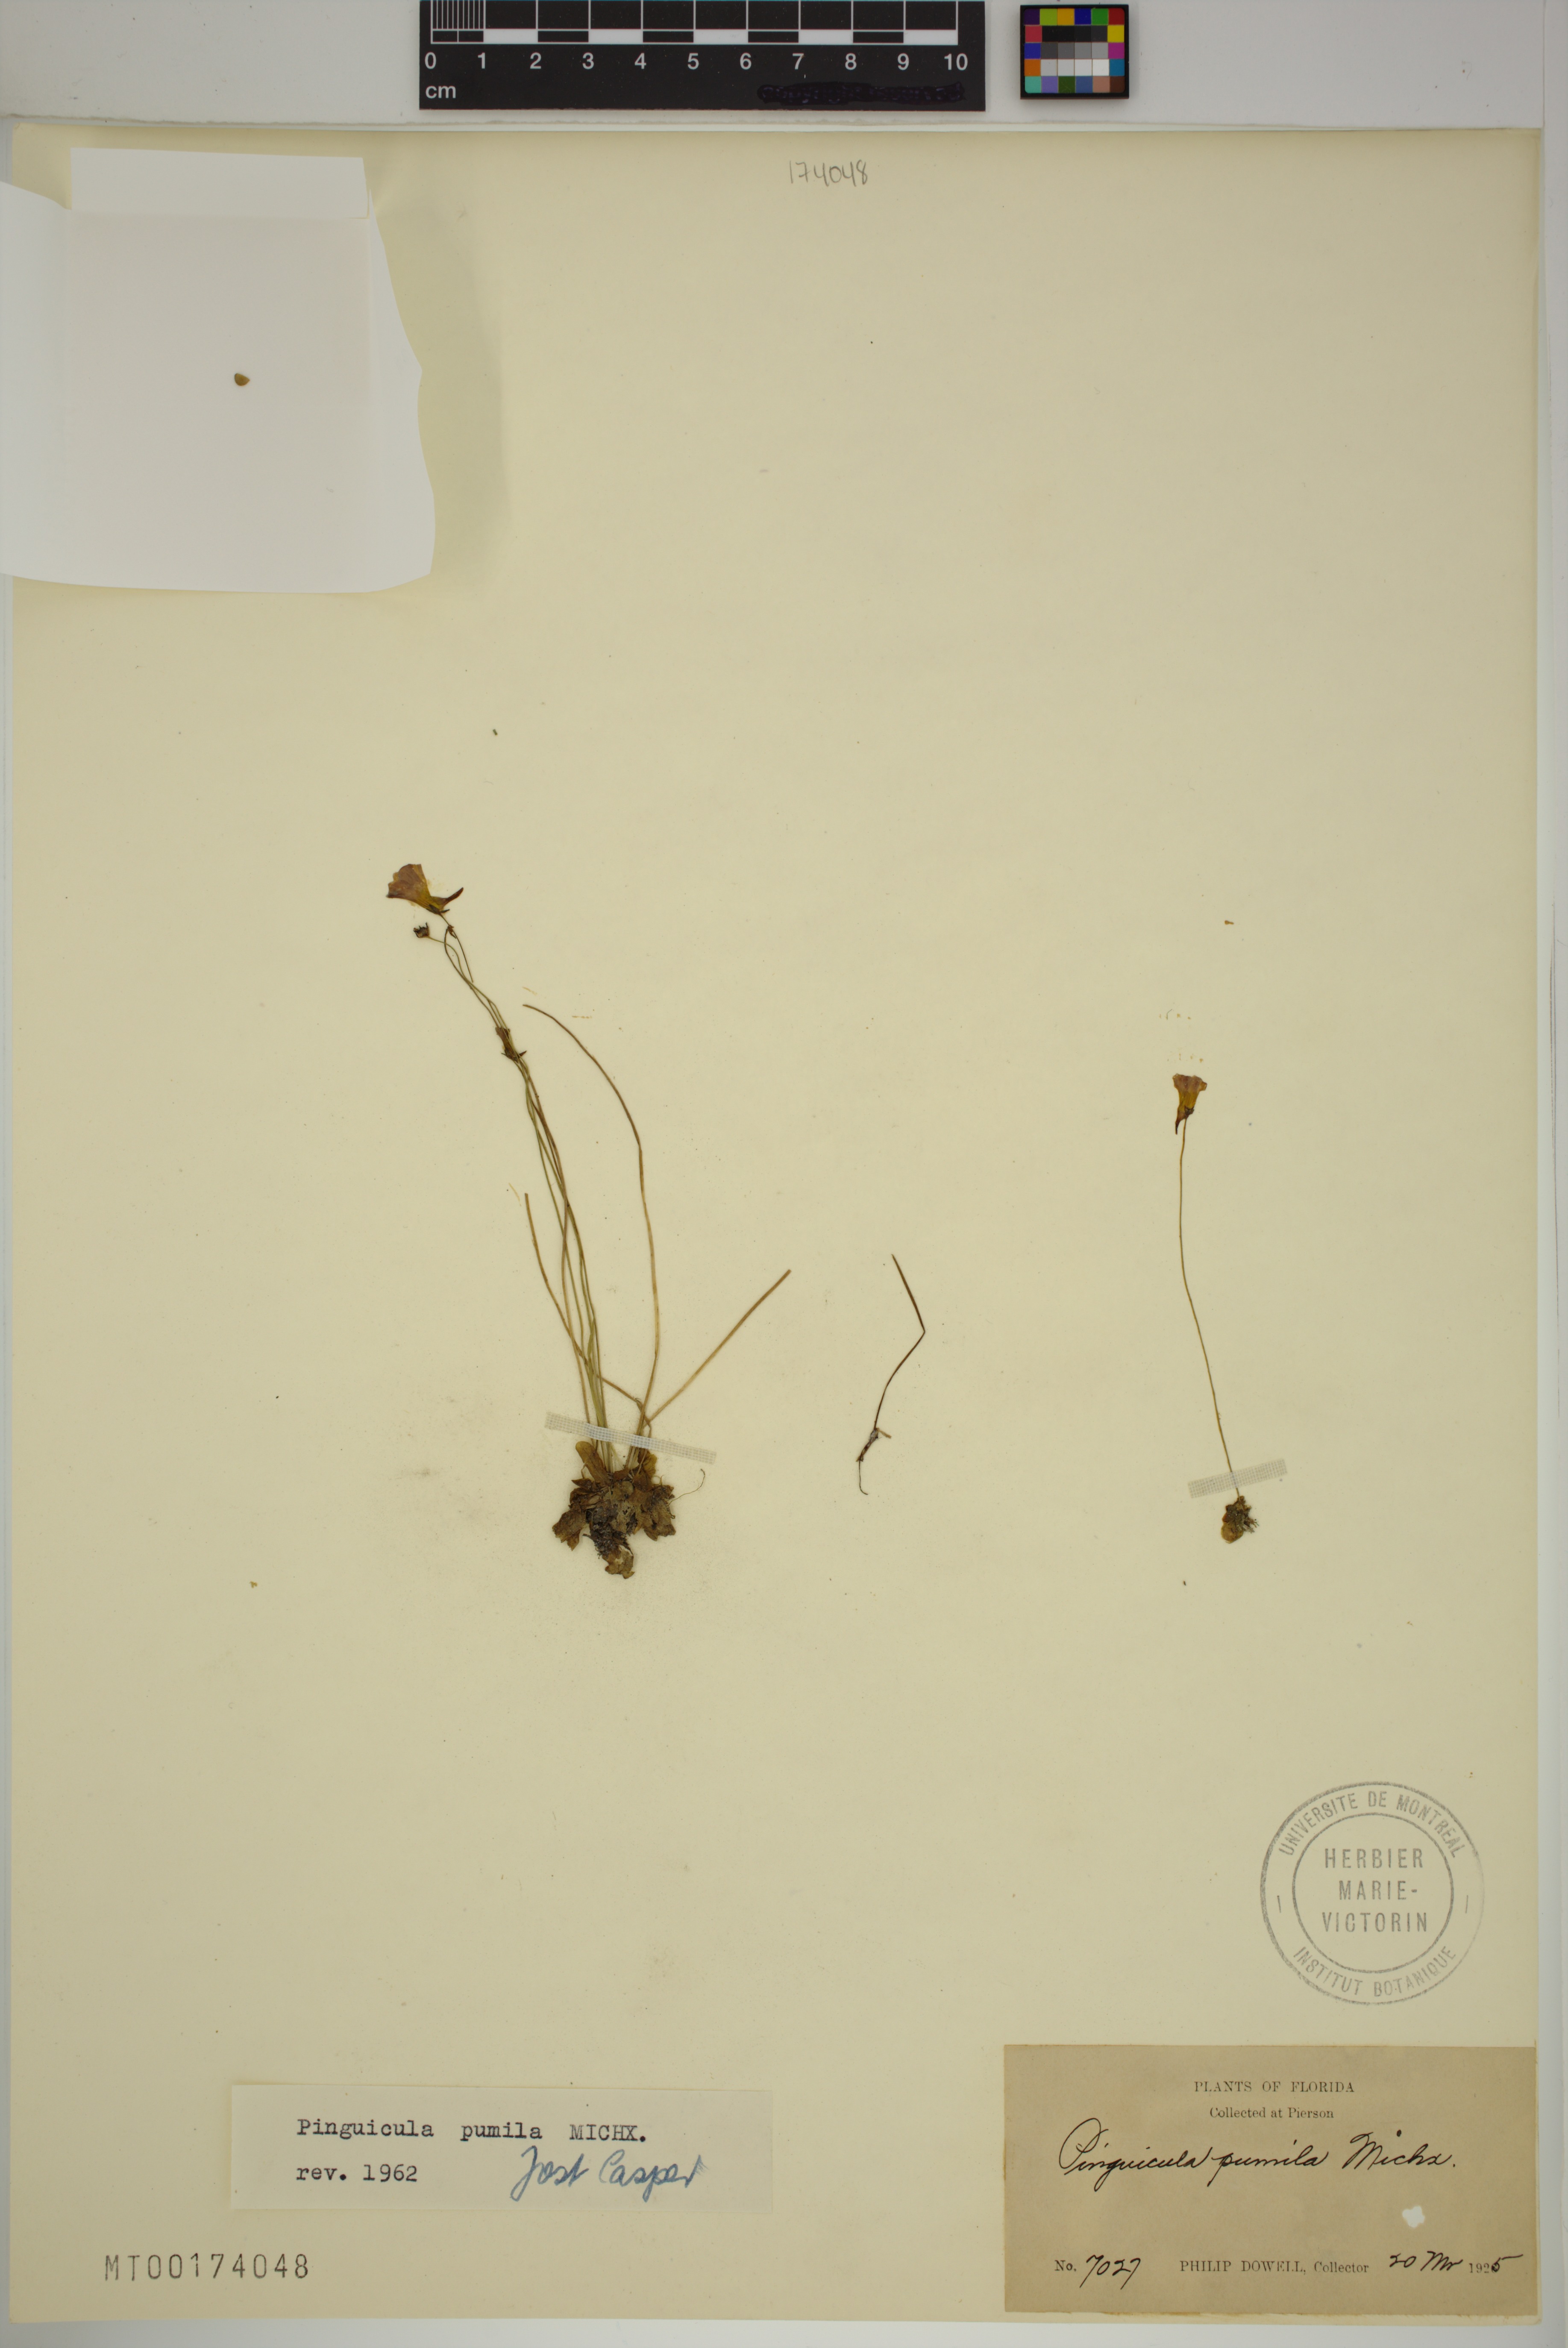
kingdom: Plantae
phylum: Tracheophyta
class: Magnoliopsida
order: Lamiales
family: Lentibulariaceae
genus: Pinguicula
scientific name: Pinguicula pumila
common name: Small butterwort
